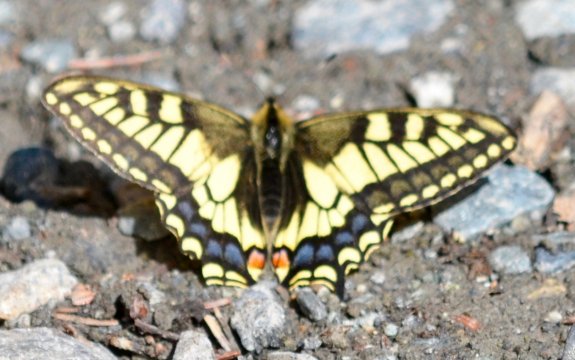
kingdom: Animalia
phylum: Arthropoda
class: Insecta
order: Lepidoptera
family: Papilionidae
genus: Papilio
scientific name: Papilio machaon
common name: Old World Swallowtail
